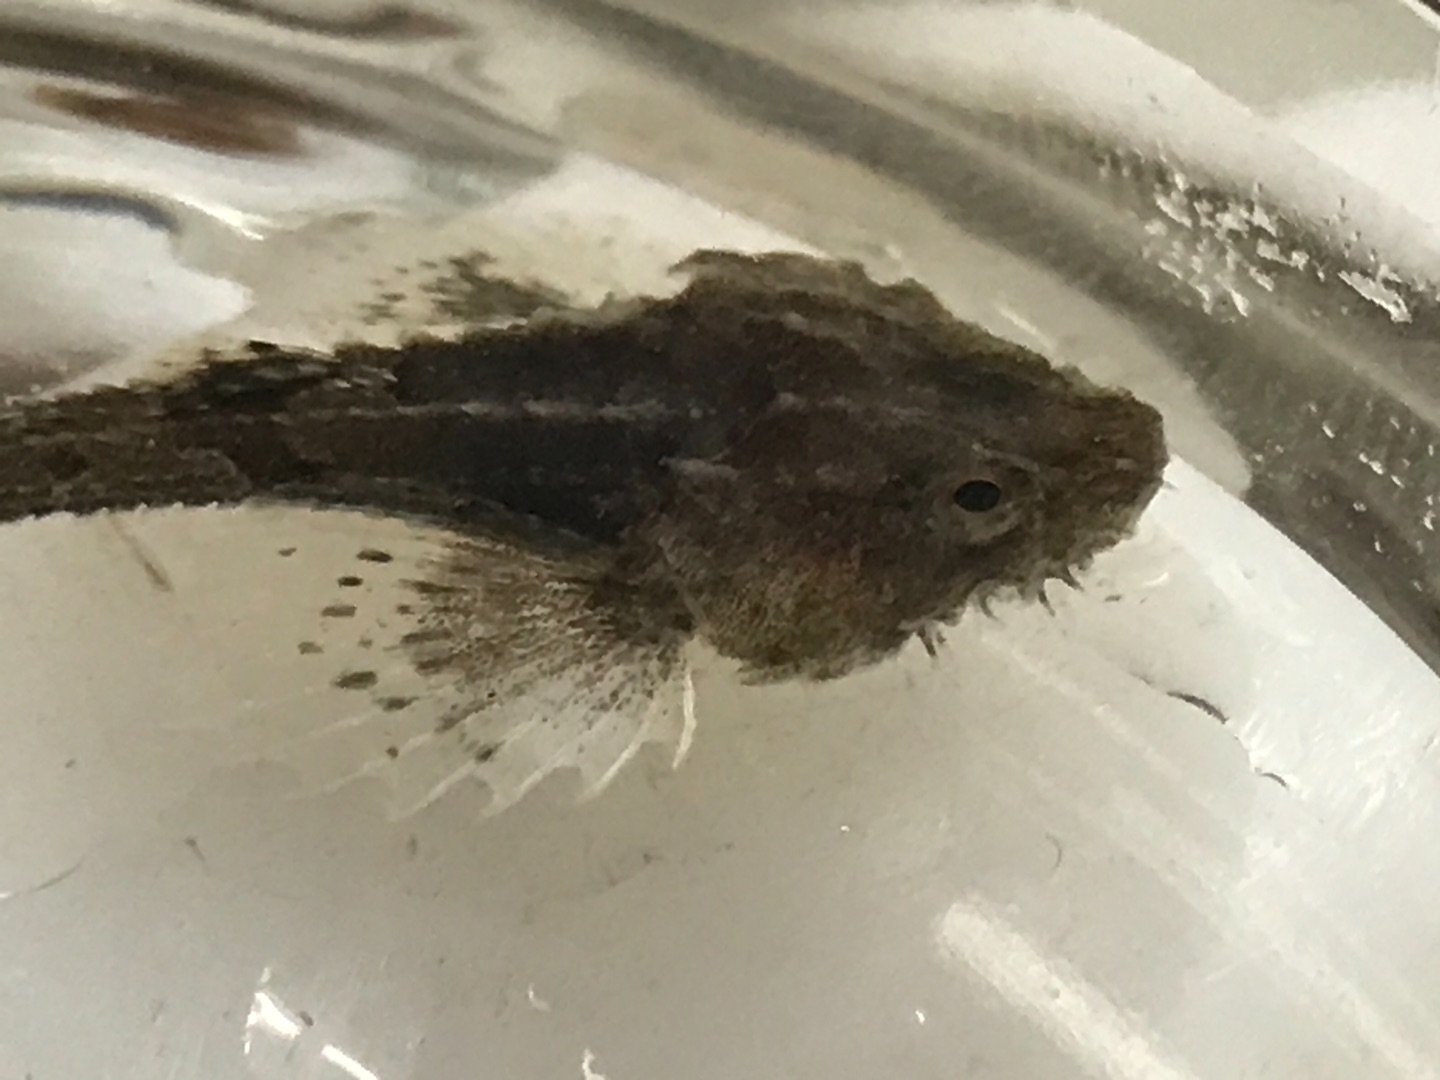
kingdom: Animalia
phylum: Chordata
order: Scorpaeniformes
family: Agonidae
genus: Agonus
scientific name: Agonus cataphractus
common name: Panserulk
